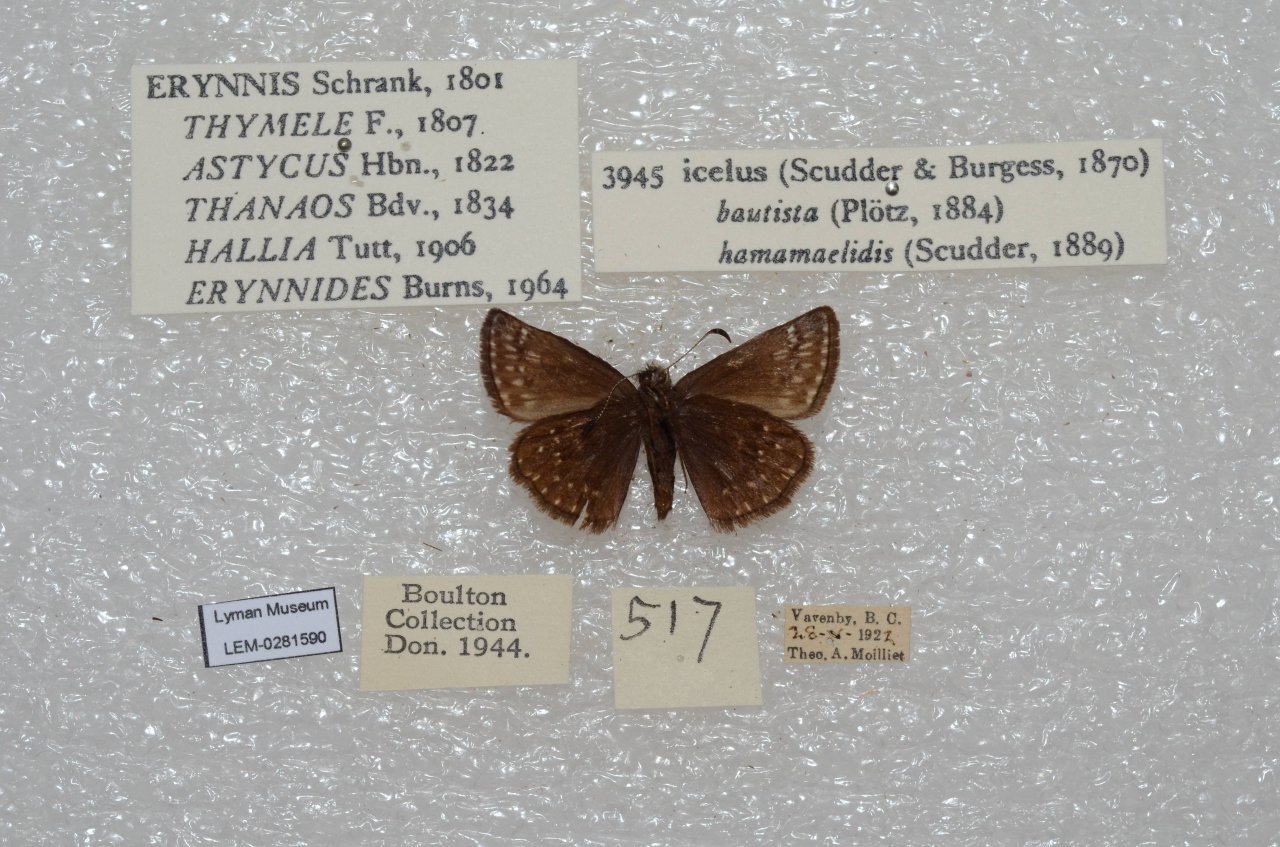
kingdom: Animalia
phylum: Arthropoda
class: Insecta
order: Lepidoptera
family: Hesperiidae
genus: Erynnis
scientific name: Erynnis icelus
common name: Dreamy Duskywing
